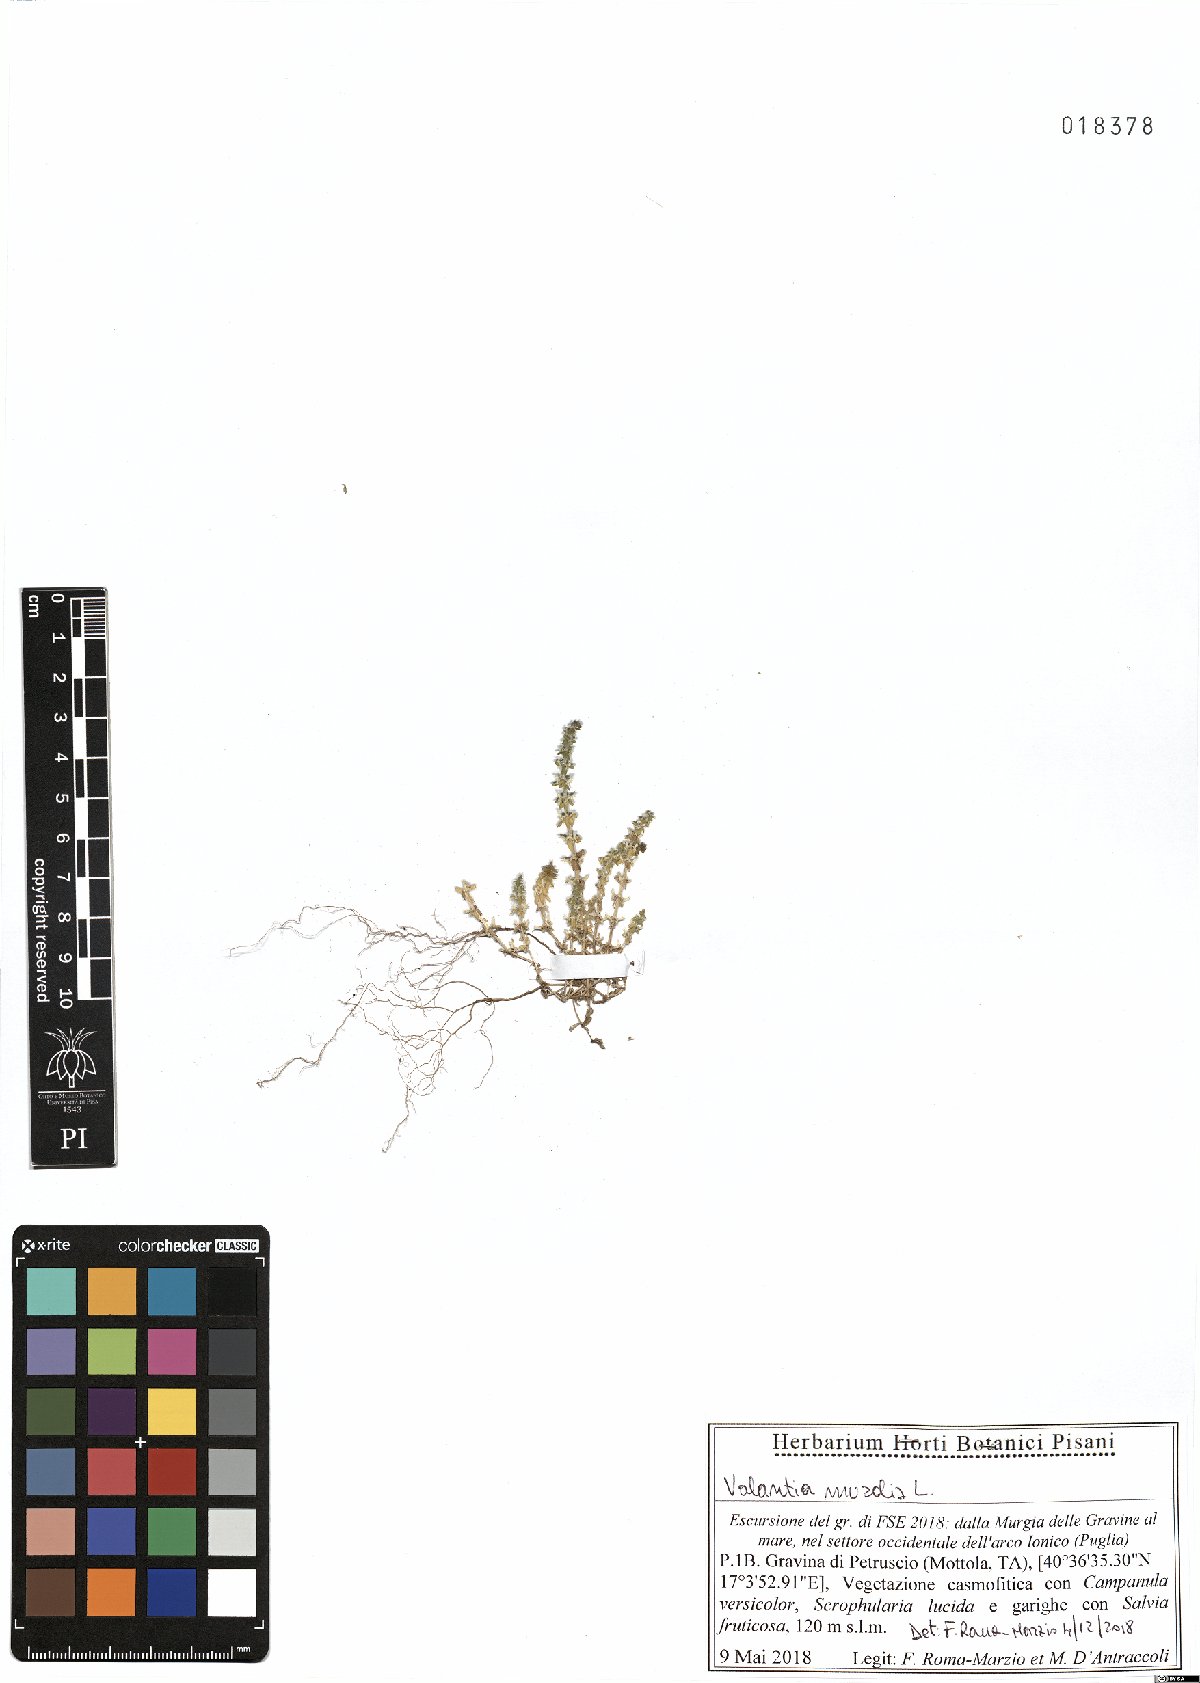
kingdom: Plantae
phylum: Tracheophyta
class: Magnoliopsida
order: Gentianales
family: Rubiaceae
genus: Valantia
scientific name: Valantia muralis
